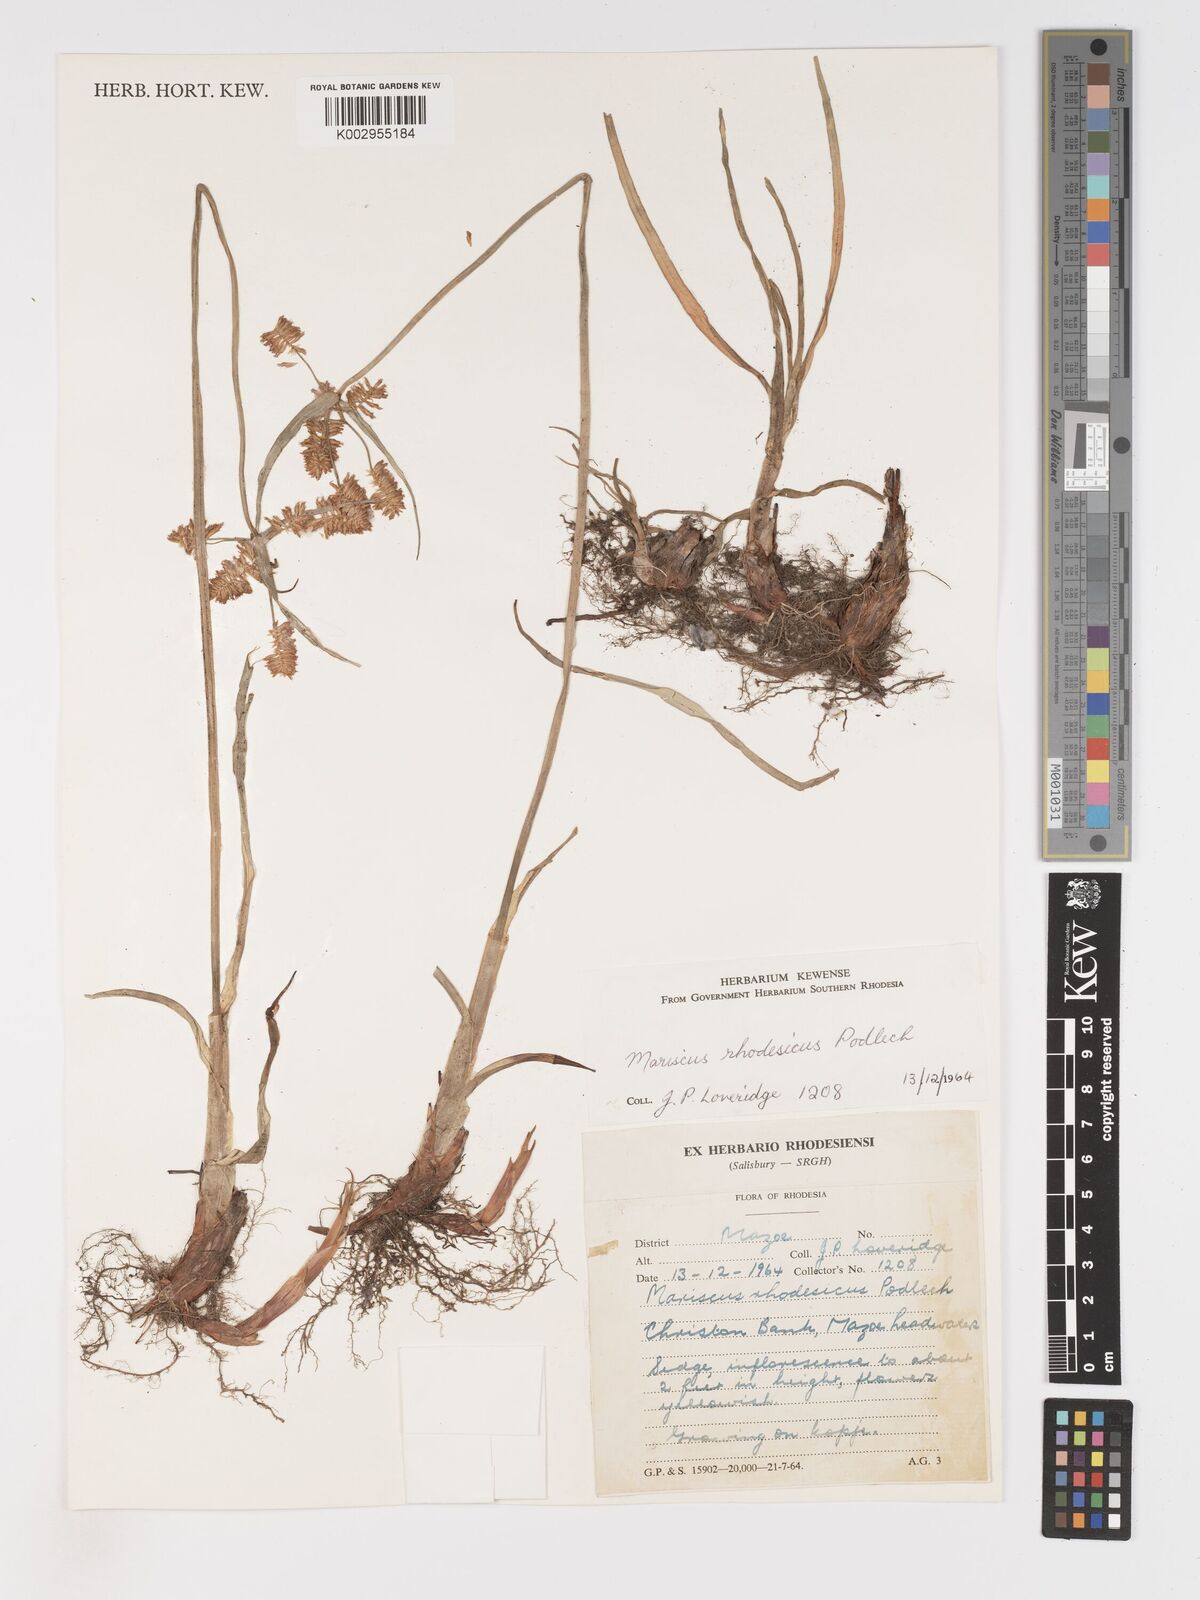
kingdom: Plantae
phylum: Tracheophyta
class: Liliopsida
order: Poales
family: Cyperaceae
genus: Cyperus
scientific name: Cyperus hirtellus
